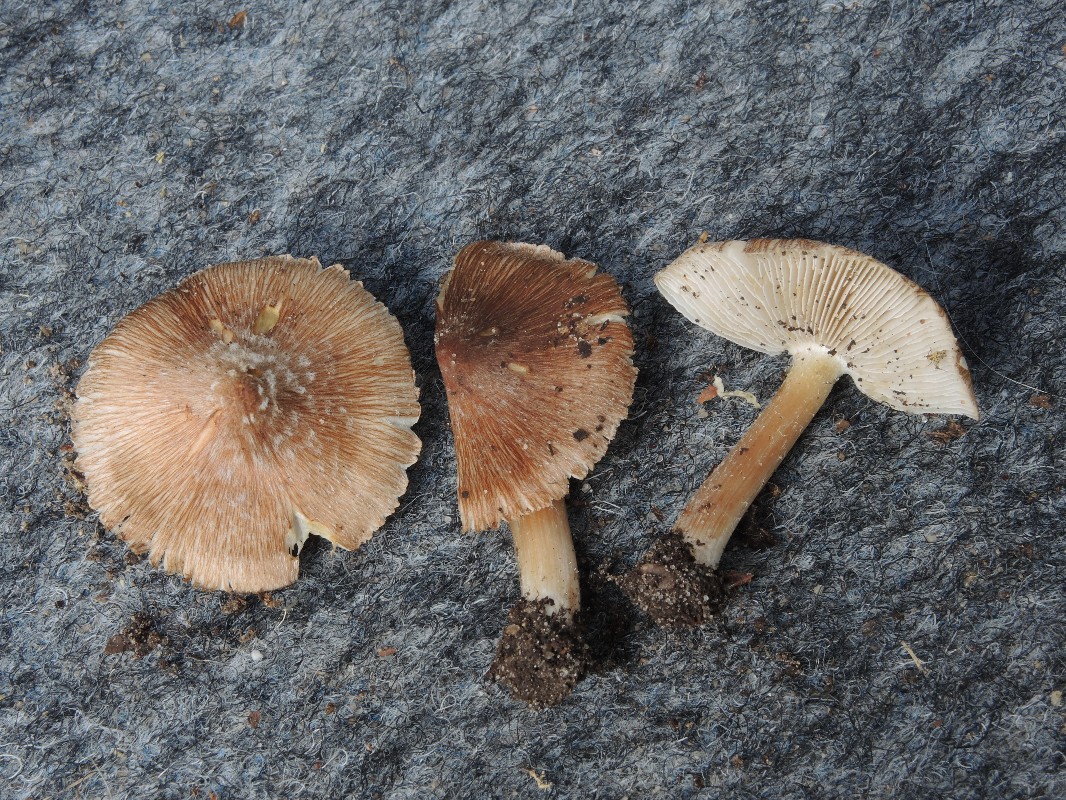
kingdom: Fungi
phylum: Basidiomycota
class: Agaricomycetes
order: Agaricales
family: Inocybaceae
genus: Inosperma
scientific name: Inosperma
